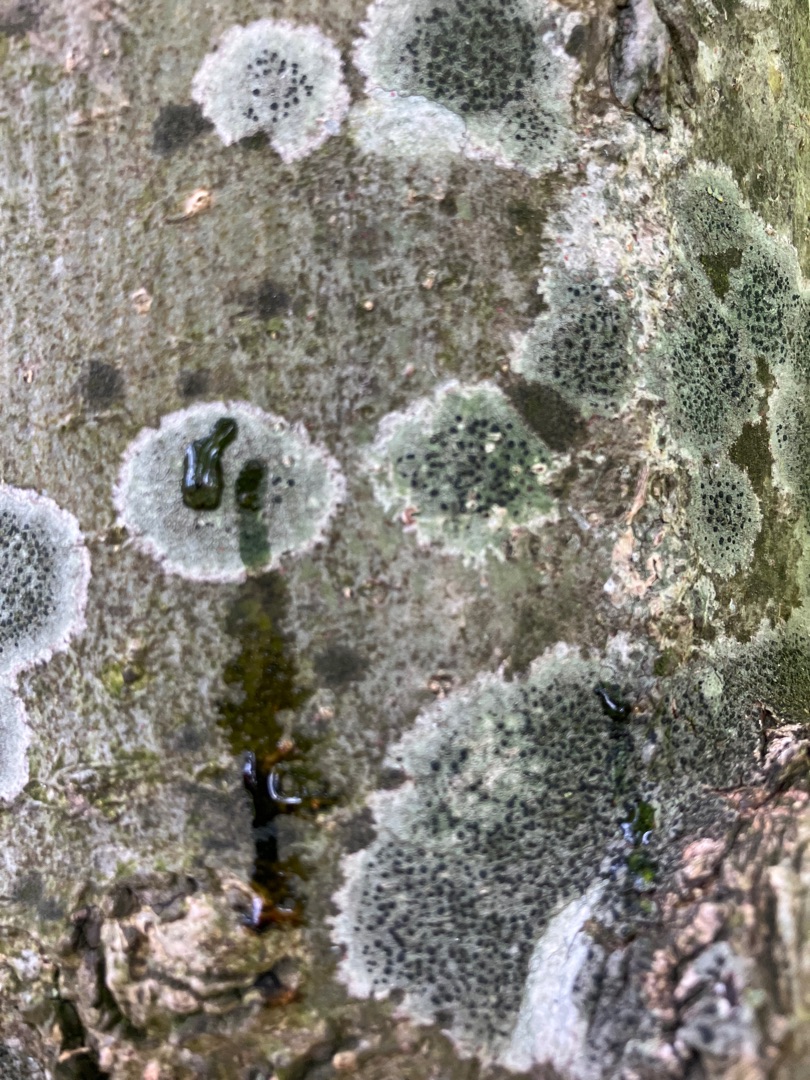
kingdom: Fungi
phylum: Ascomycota
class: Lecanoromycetes
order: Lecanorales
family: Lecanoraceae
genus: Lecidella
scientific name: Lecidella elaeochroma
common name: Grågrøn skivelav
